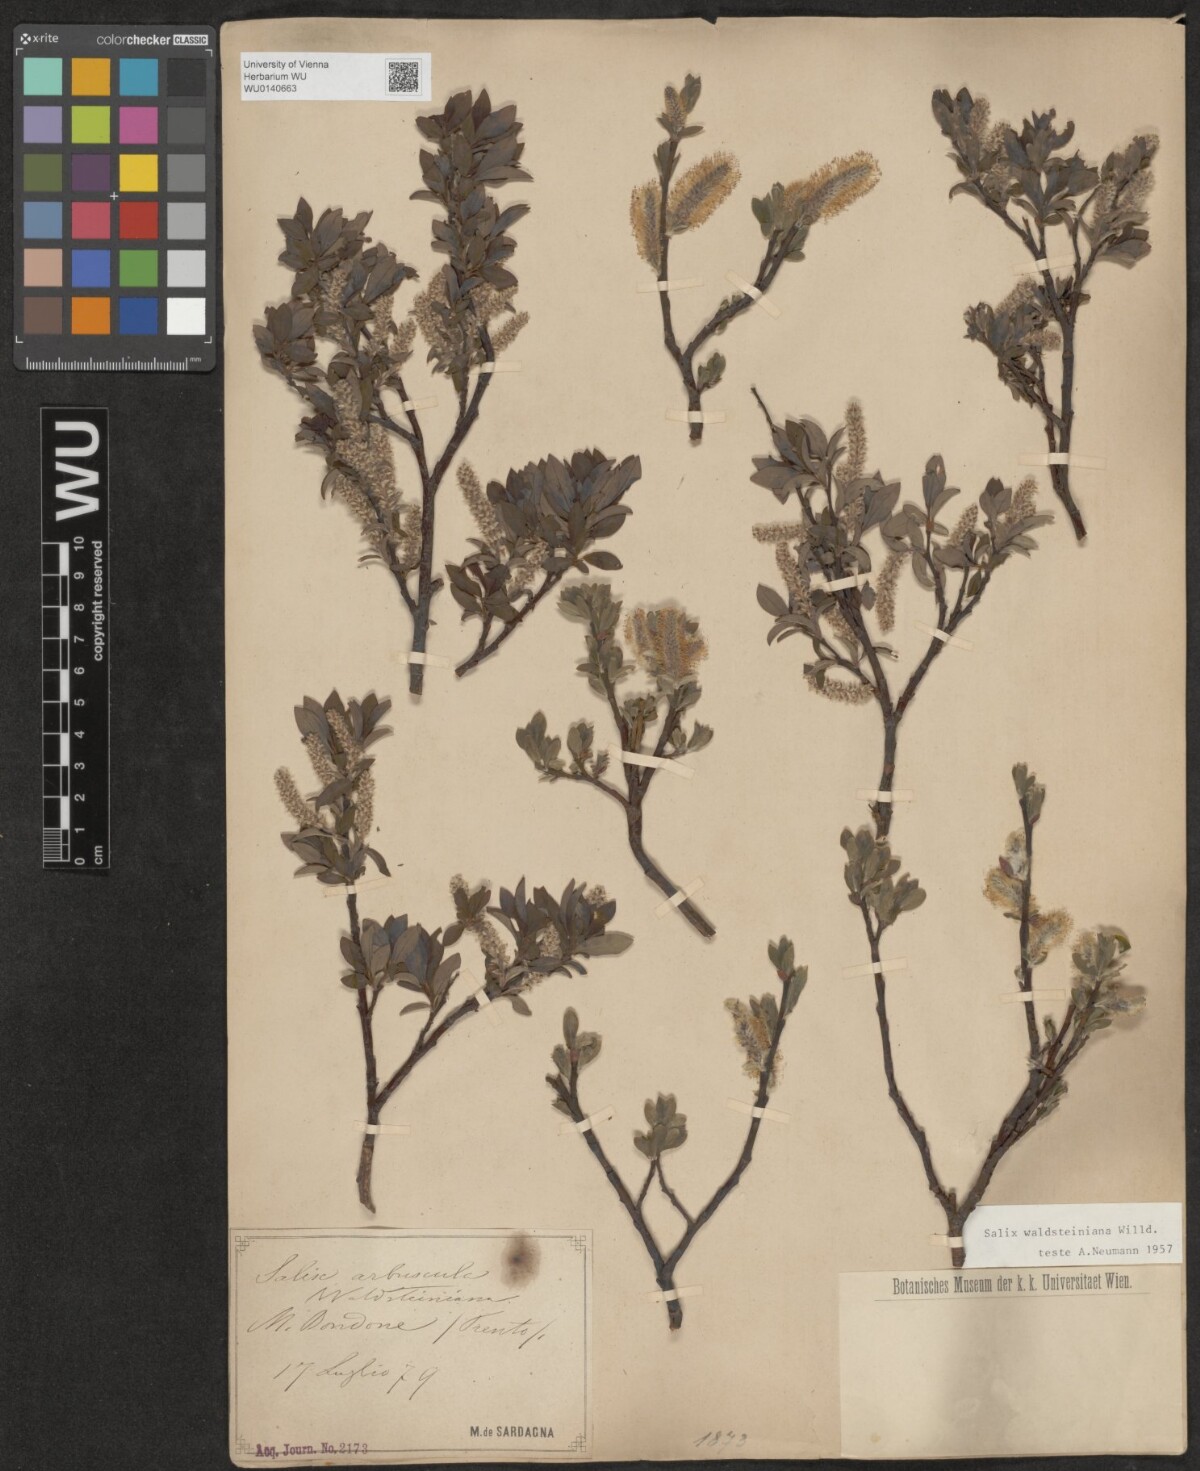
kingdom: Plantae
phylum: Tracheophyta
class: Magnoliopsida
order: Malpighiales
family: Salicaceae
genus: Salix
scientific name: Salix waldsteiniana
